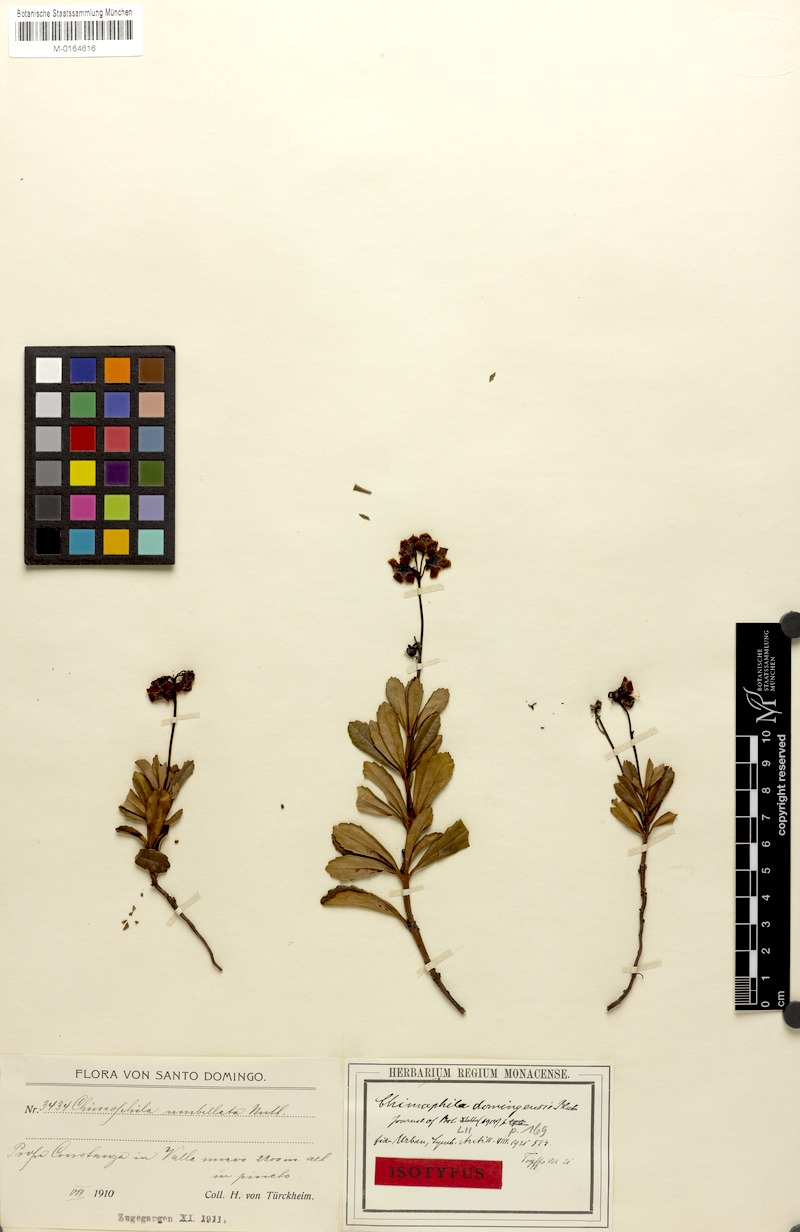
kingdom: Plantae
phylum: Tracheophyta
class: Magnoliopsida
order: Ericales
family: Ericaceae
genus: Chimaphila
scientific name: Chimaphila umbellata
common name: Pipsissewa
